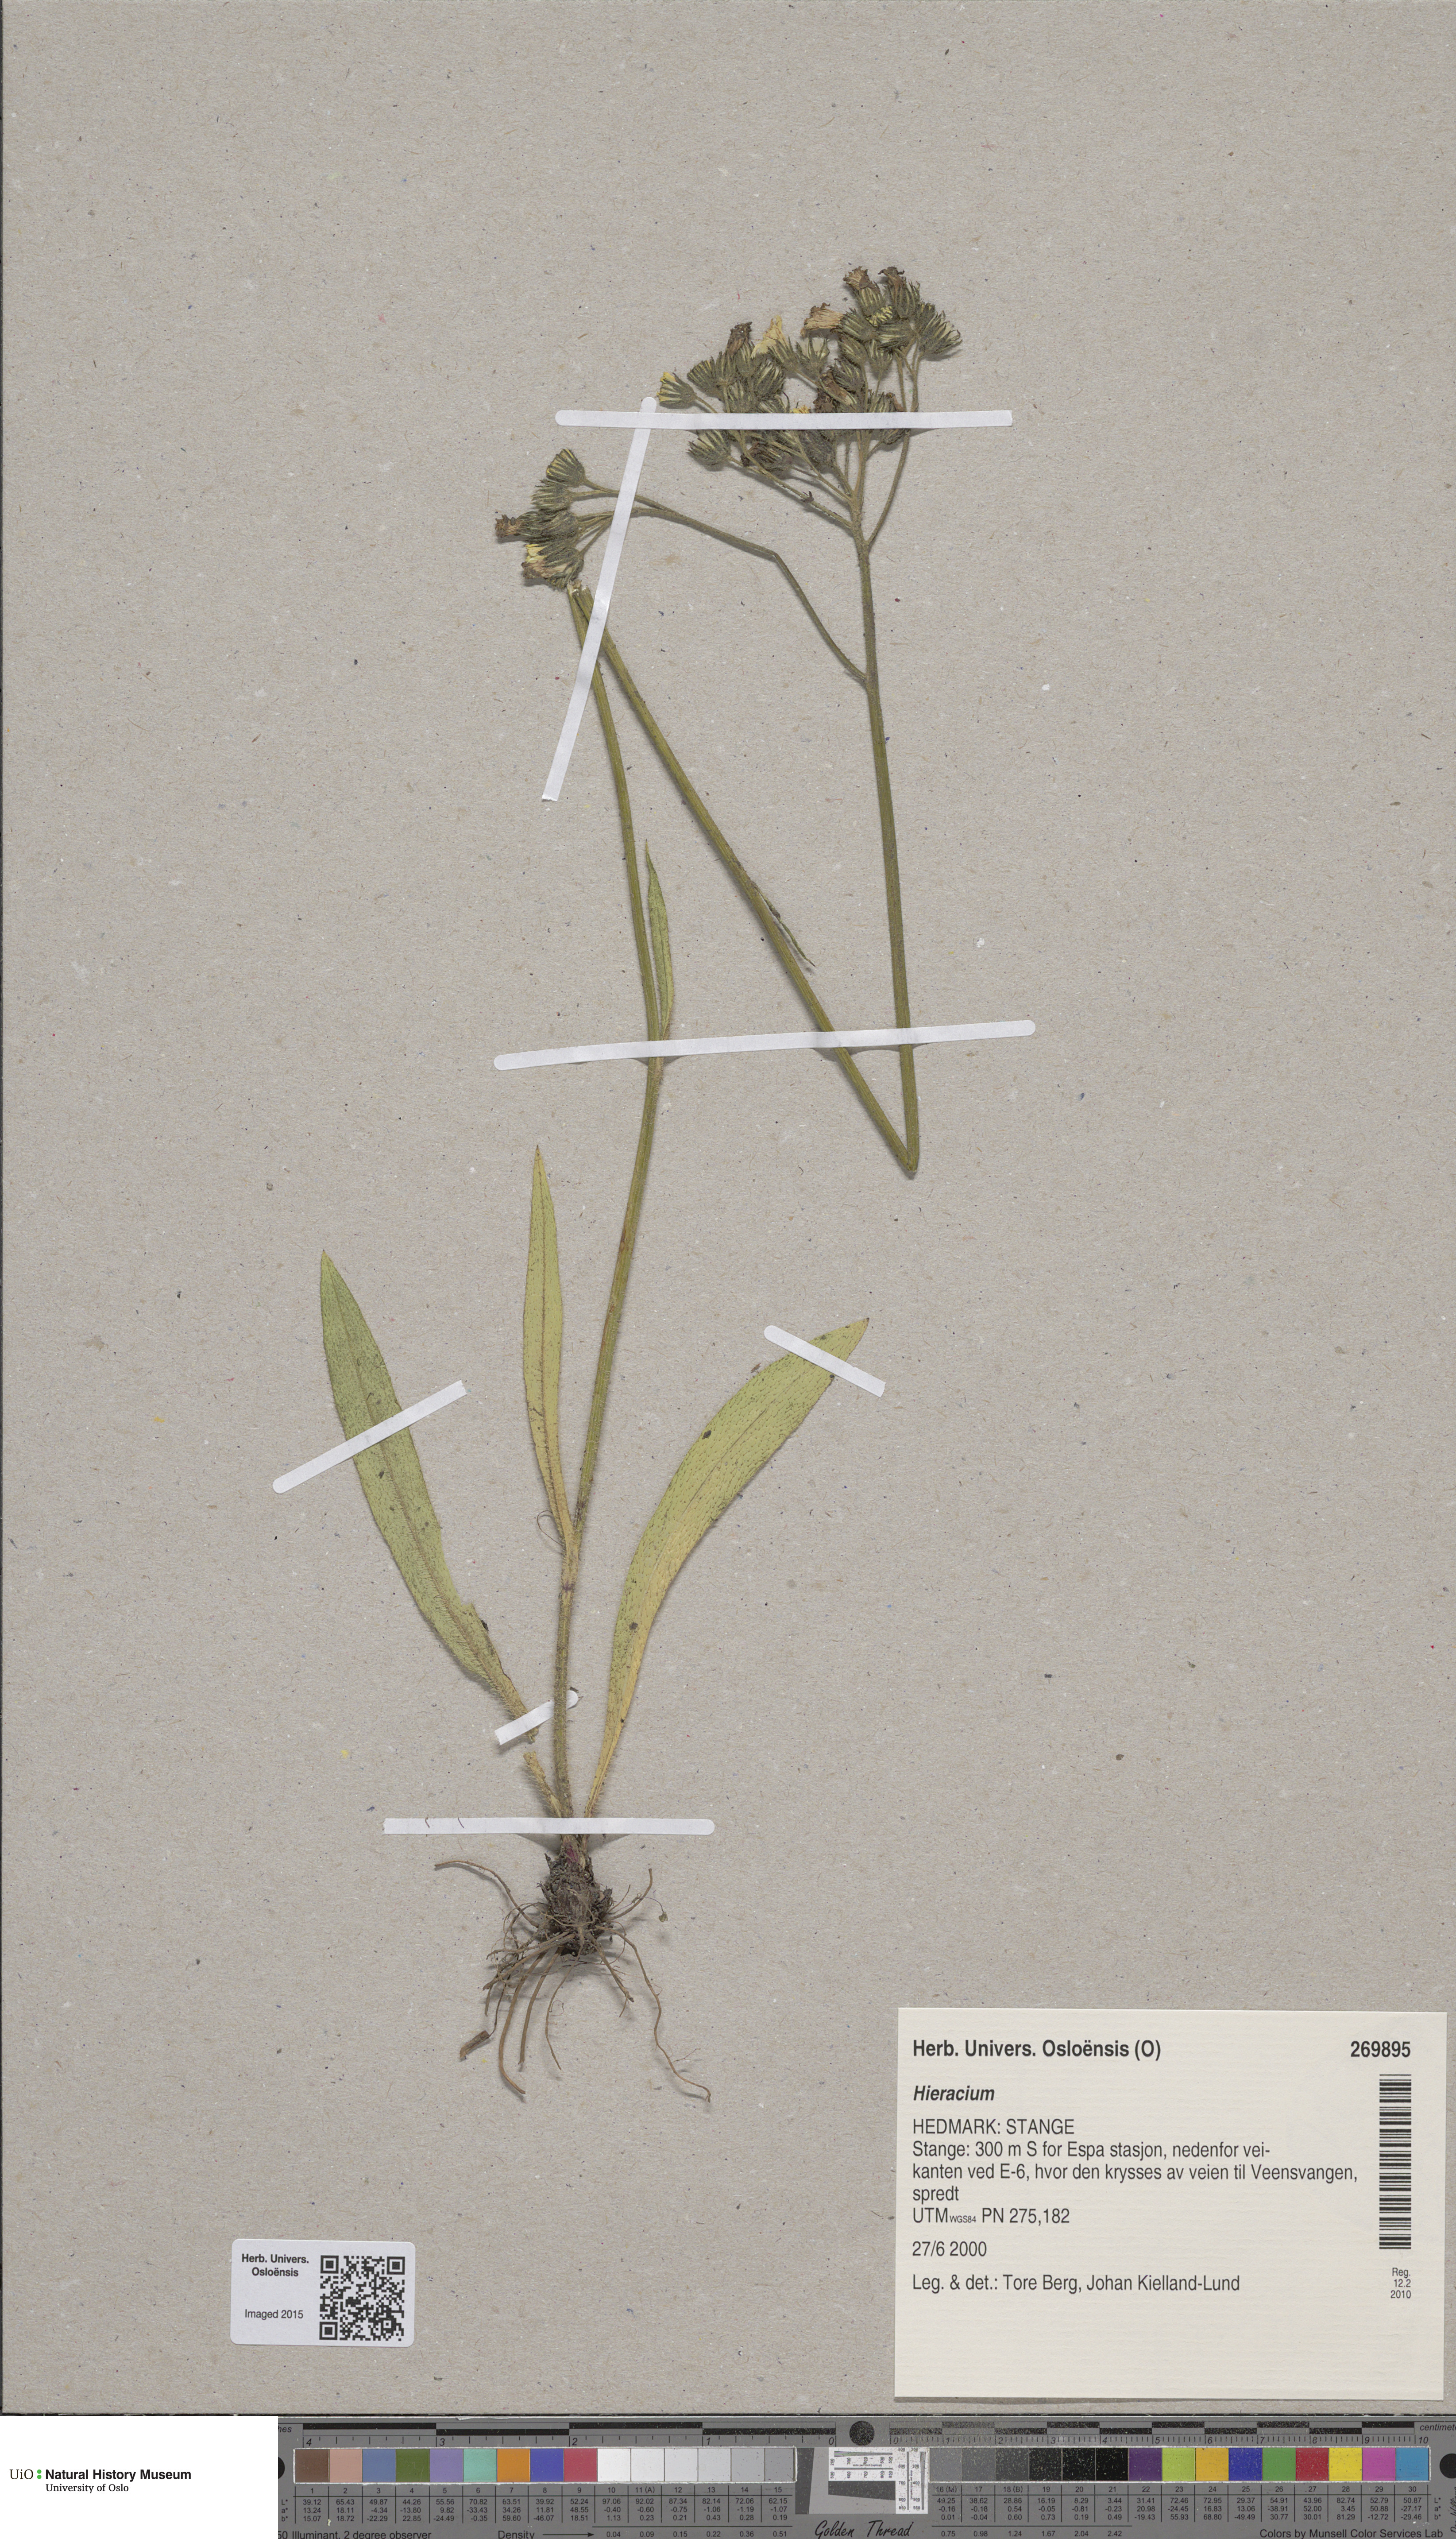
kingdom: Plantae
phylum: Tracheophyta
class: Magnoliopsida
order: Asterales
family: Asteraceae
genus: Hieracium
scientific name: Hieracium
